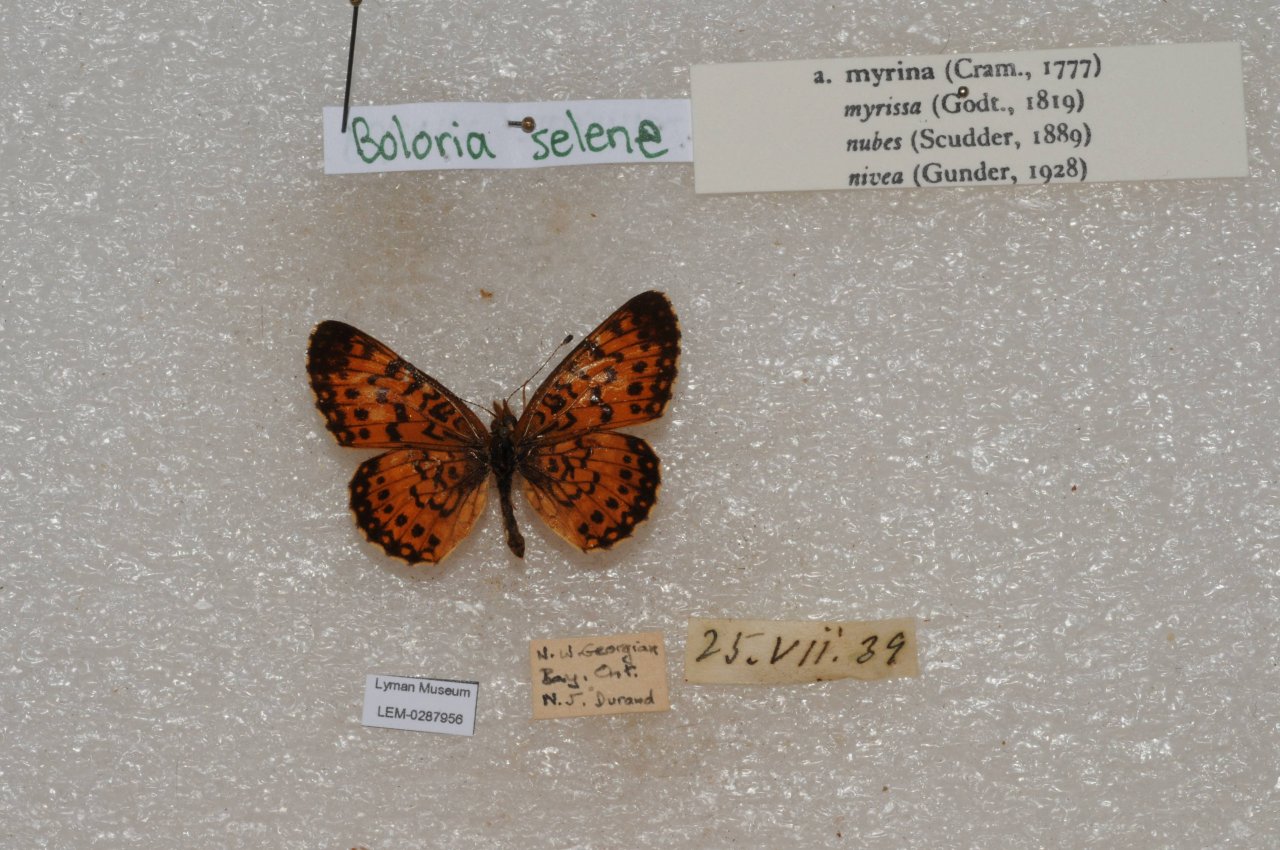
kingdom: Animalia
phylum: Arthropoda
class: Insecta
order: Lepidoptera
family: Nymphalidae
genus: Boloria
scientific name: Boloria selene
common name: Silver-bordered Fritillary
